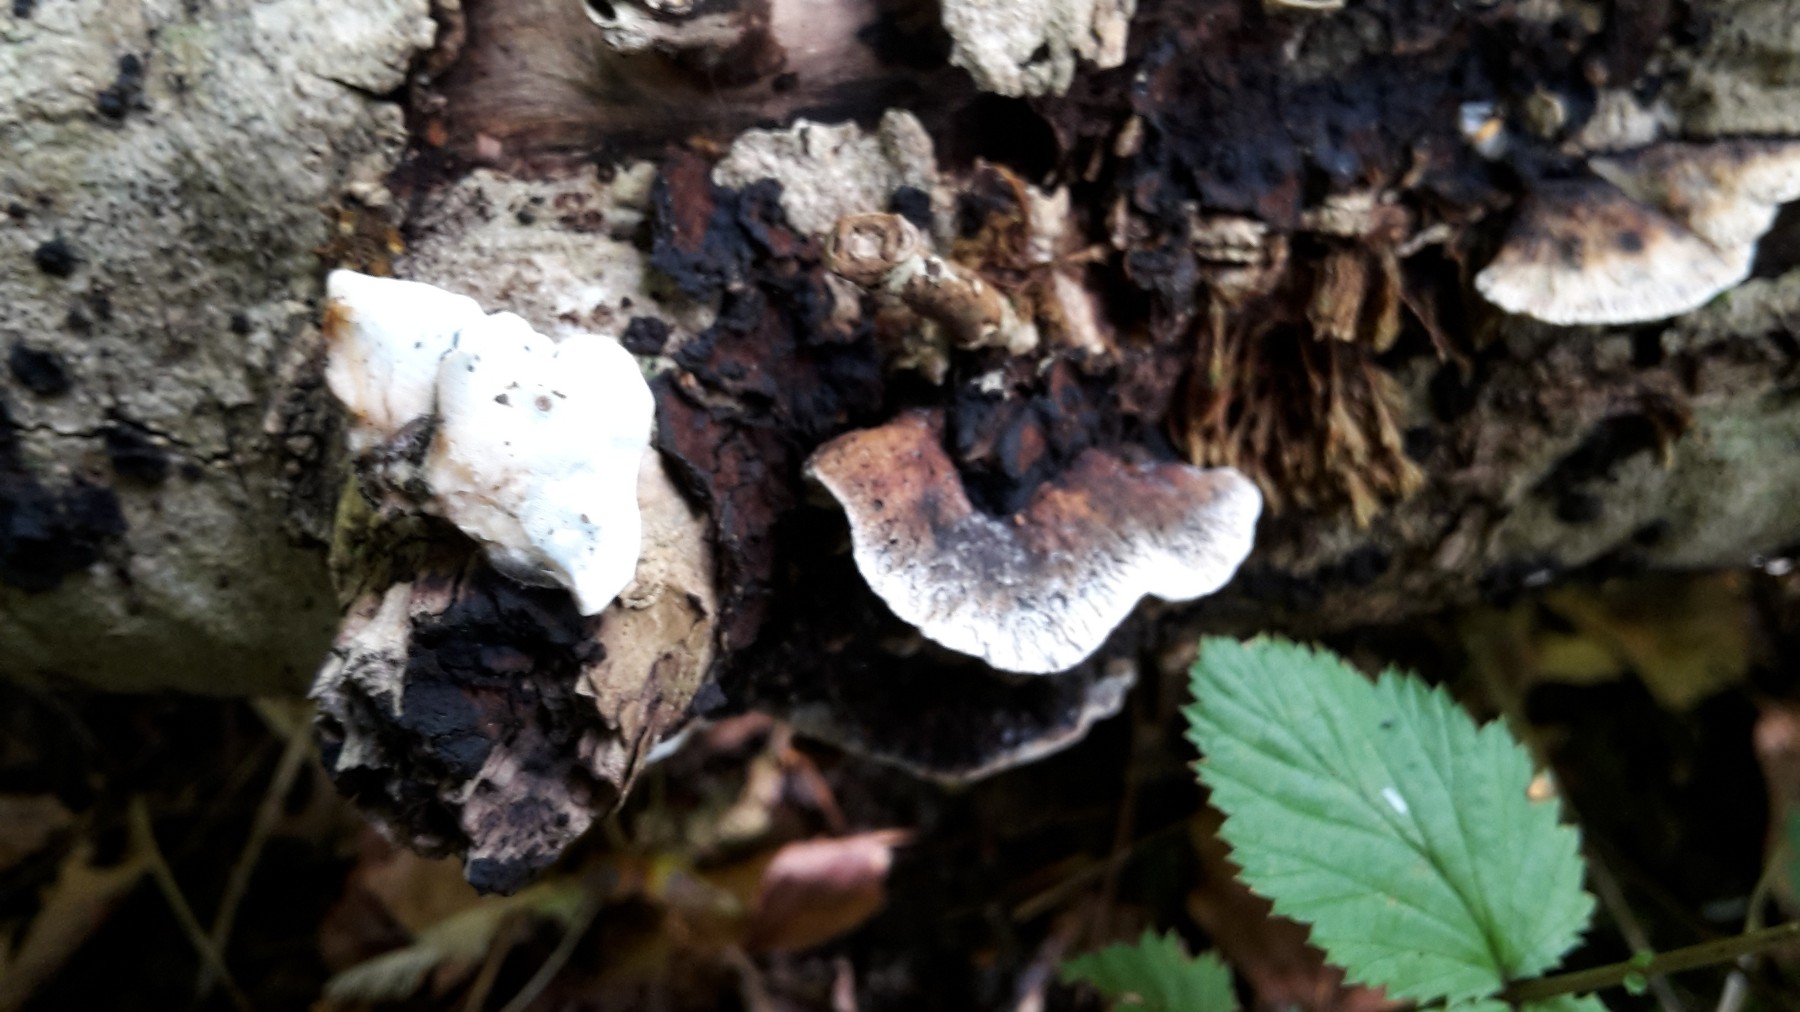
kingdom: Fungi
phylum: Basidiomycota
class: Agaricomycetes
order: Polyporales
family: Incrustoporiaceae
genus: Skeletocutis
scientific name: Skeletocutis nemoralis
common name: stor krystalporesvamp
